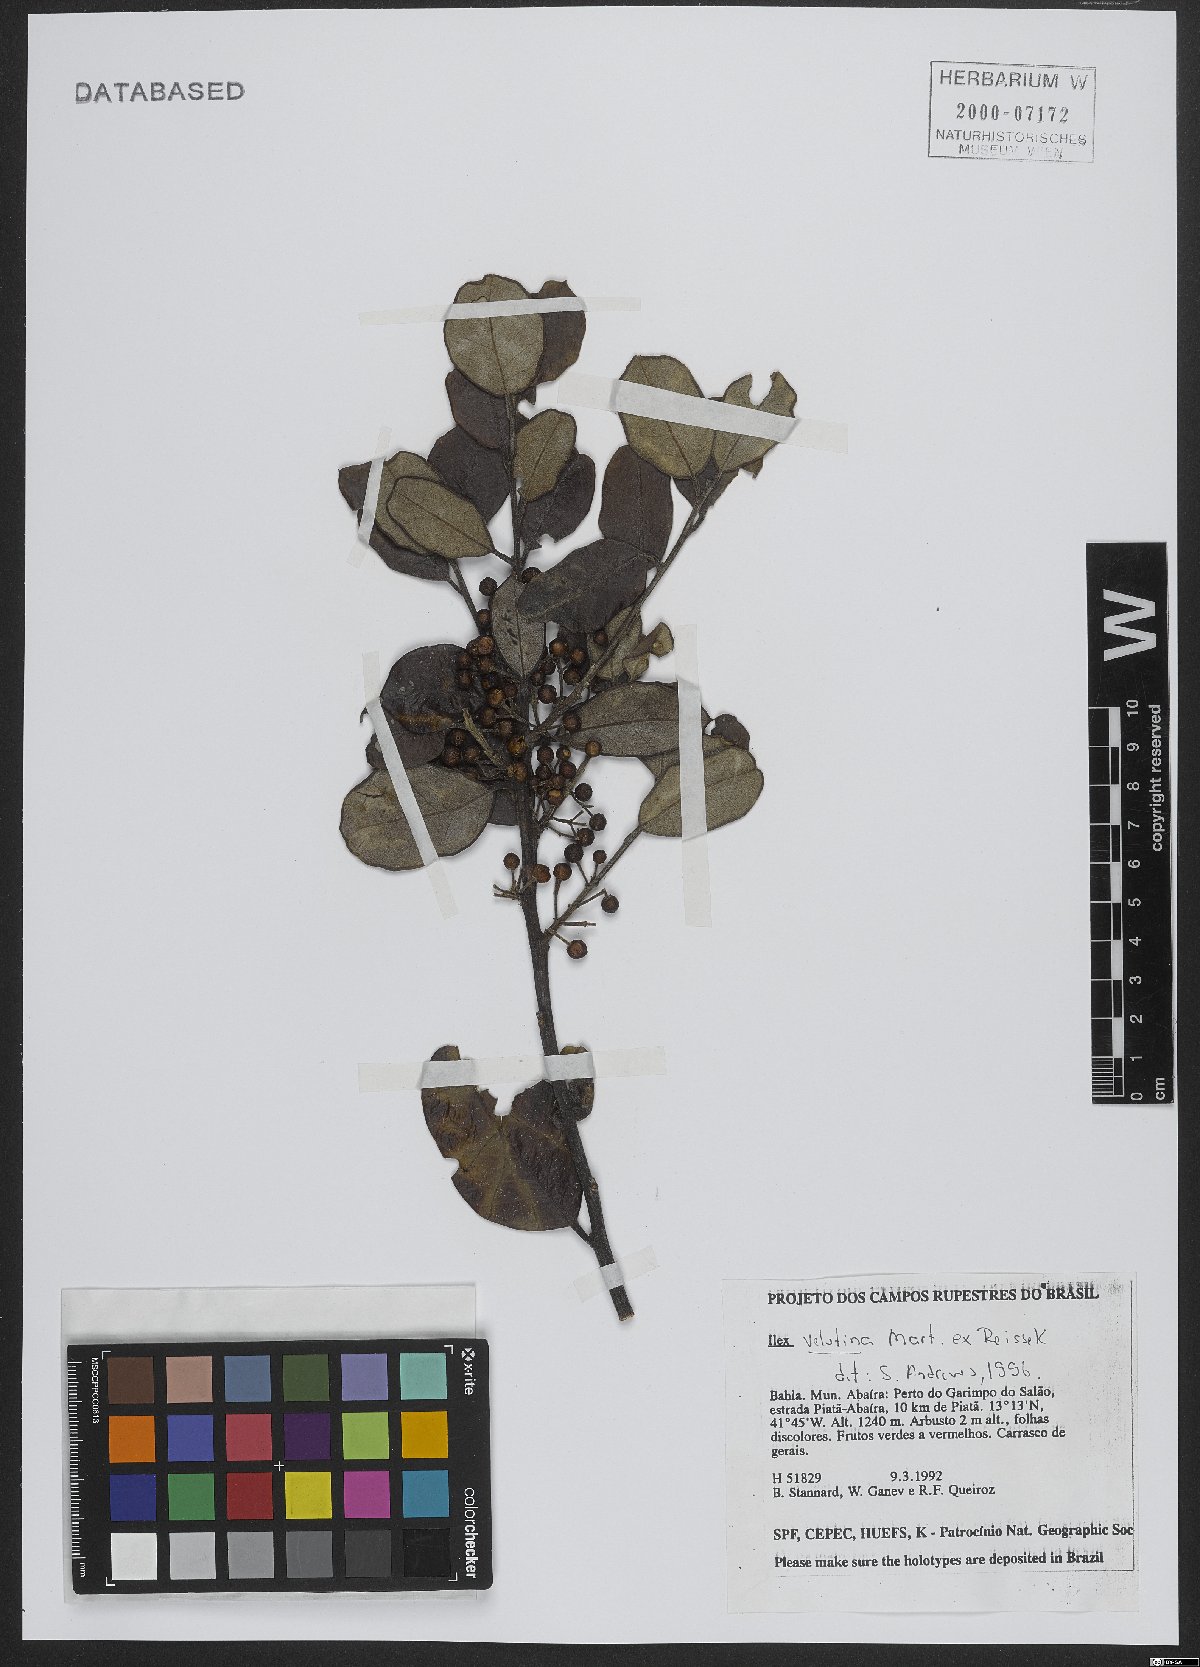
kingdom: Plantae
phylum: Tracheophyta
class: Magnoliopsida
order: Aquifoliales
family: Aquifoliaceae
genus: Ilex
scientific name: Ilex velutina
